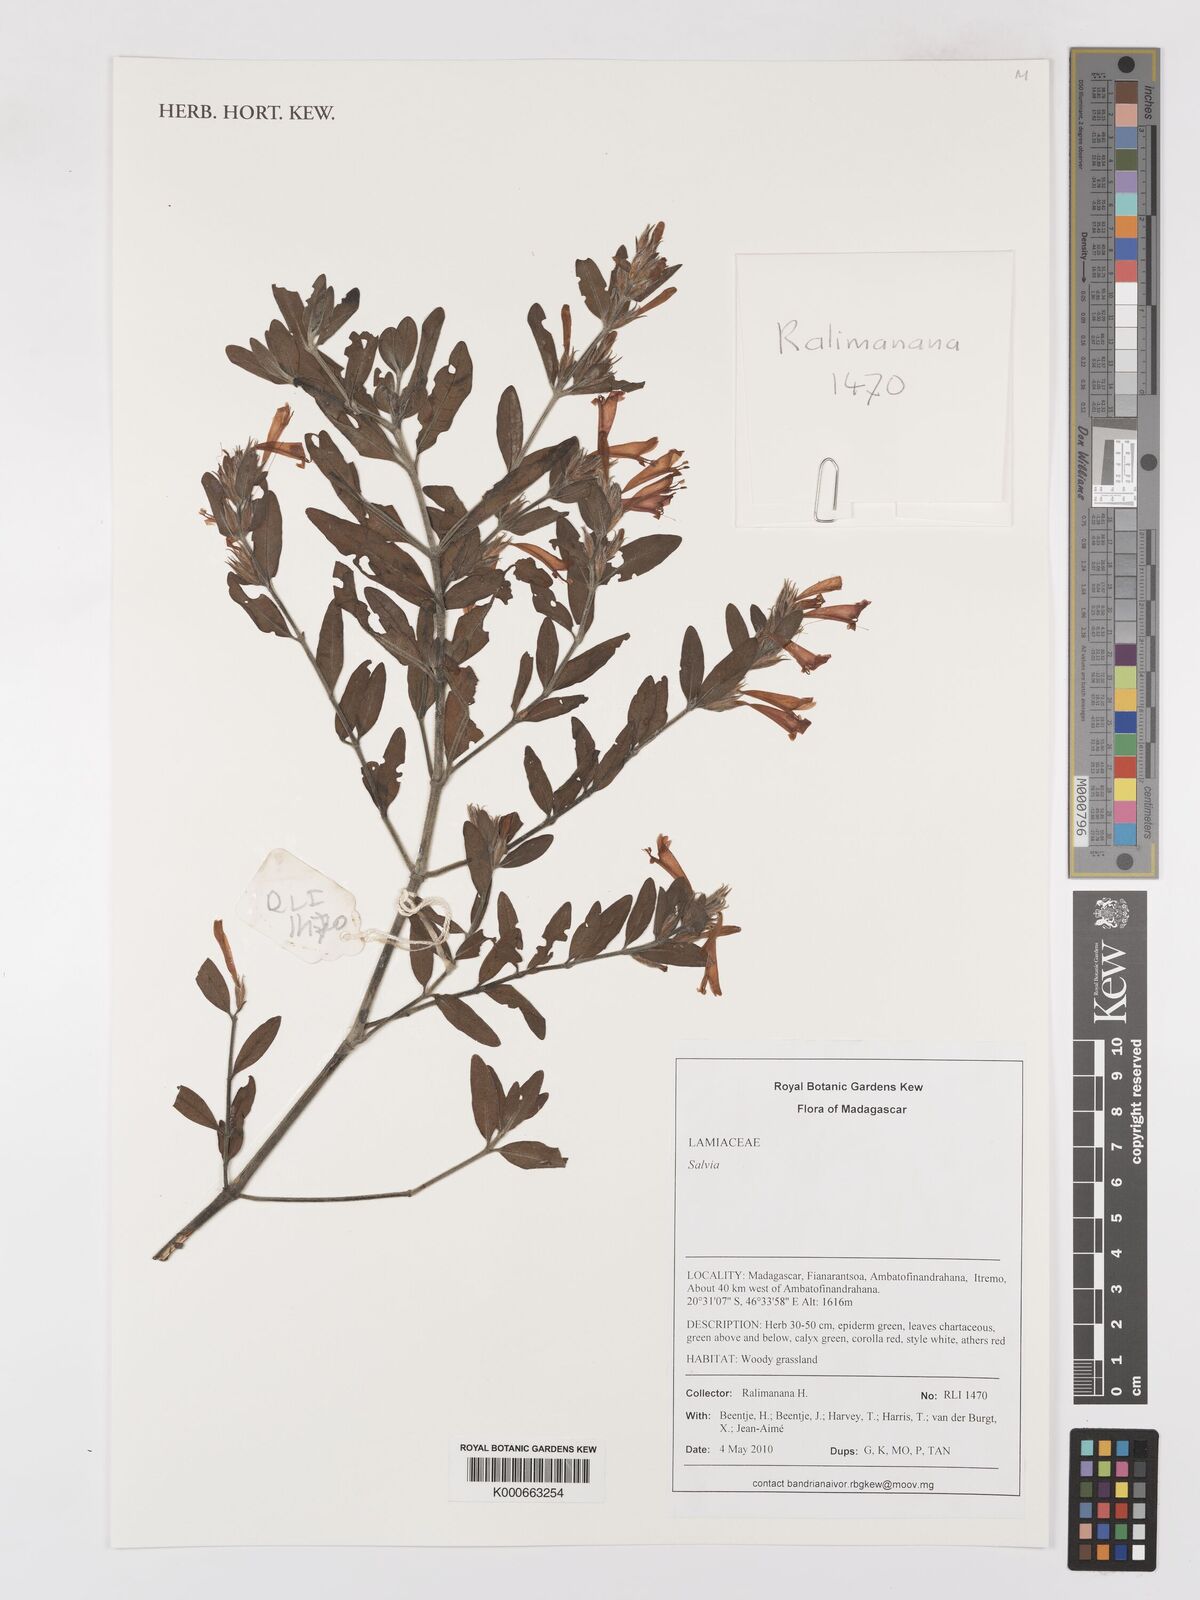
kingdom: Plantae
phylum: Tracheophyta
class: Magnoliopsida
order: Lamiales
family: Lamiaceae
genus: Salvia
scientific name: Salvia
